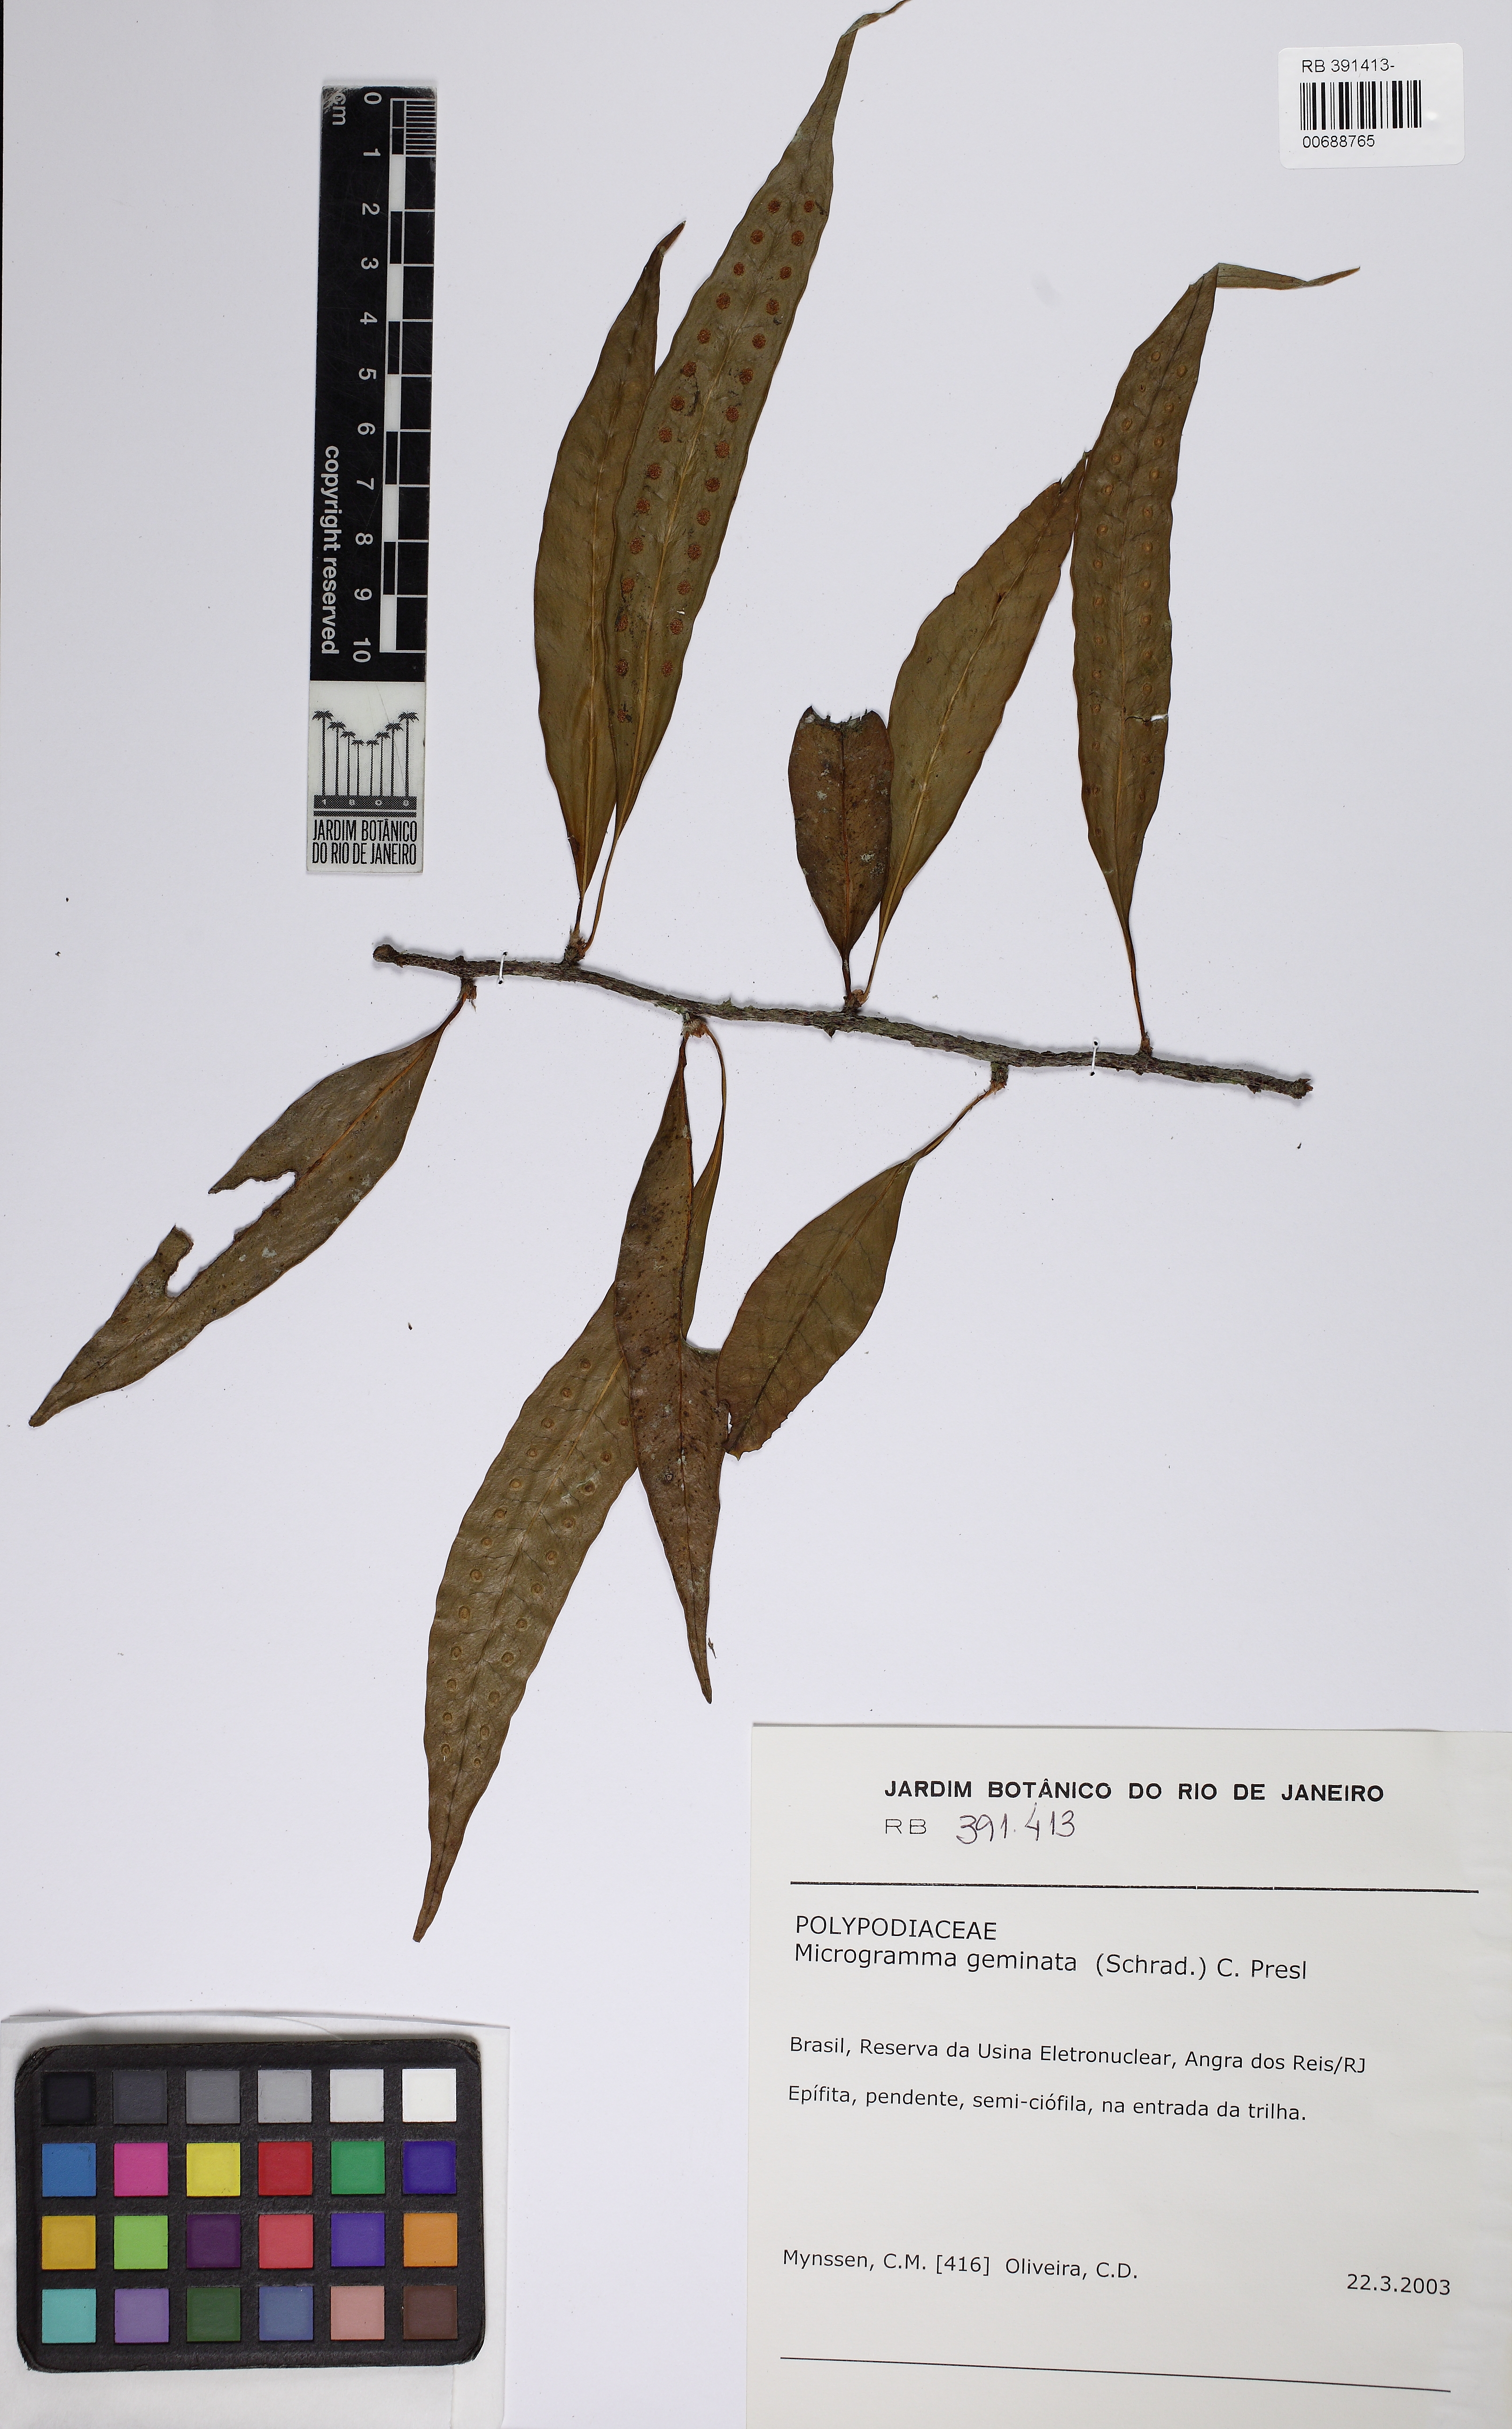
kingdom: Plantae
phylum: Tracheophyta
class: Polypodiopsida
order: Polypodiales
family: Polypodiaceae
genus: Microgramma
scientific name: Microgramma geminata
